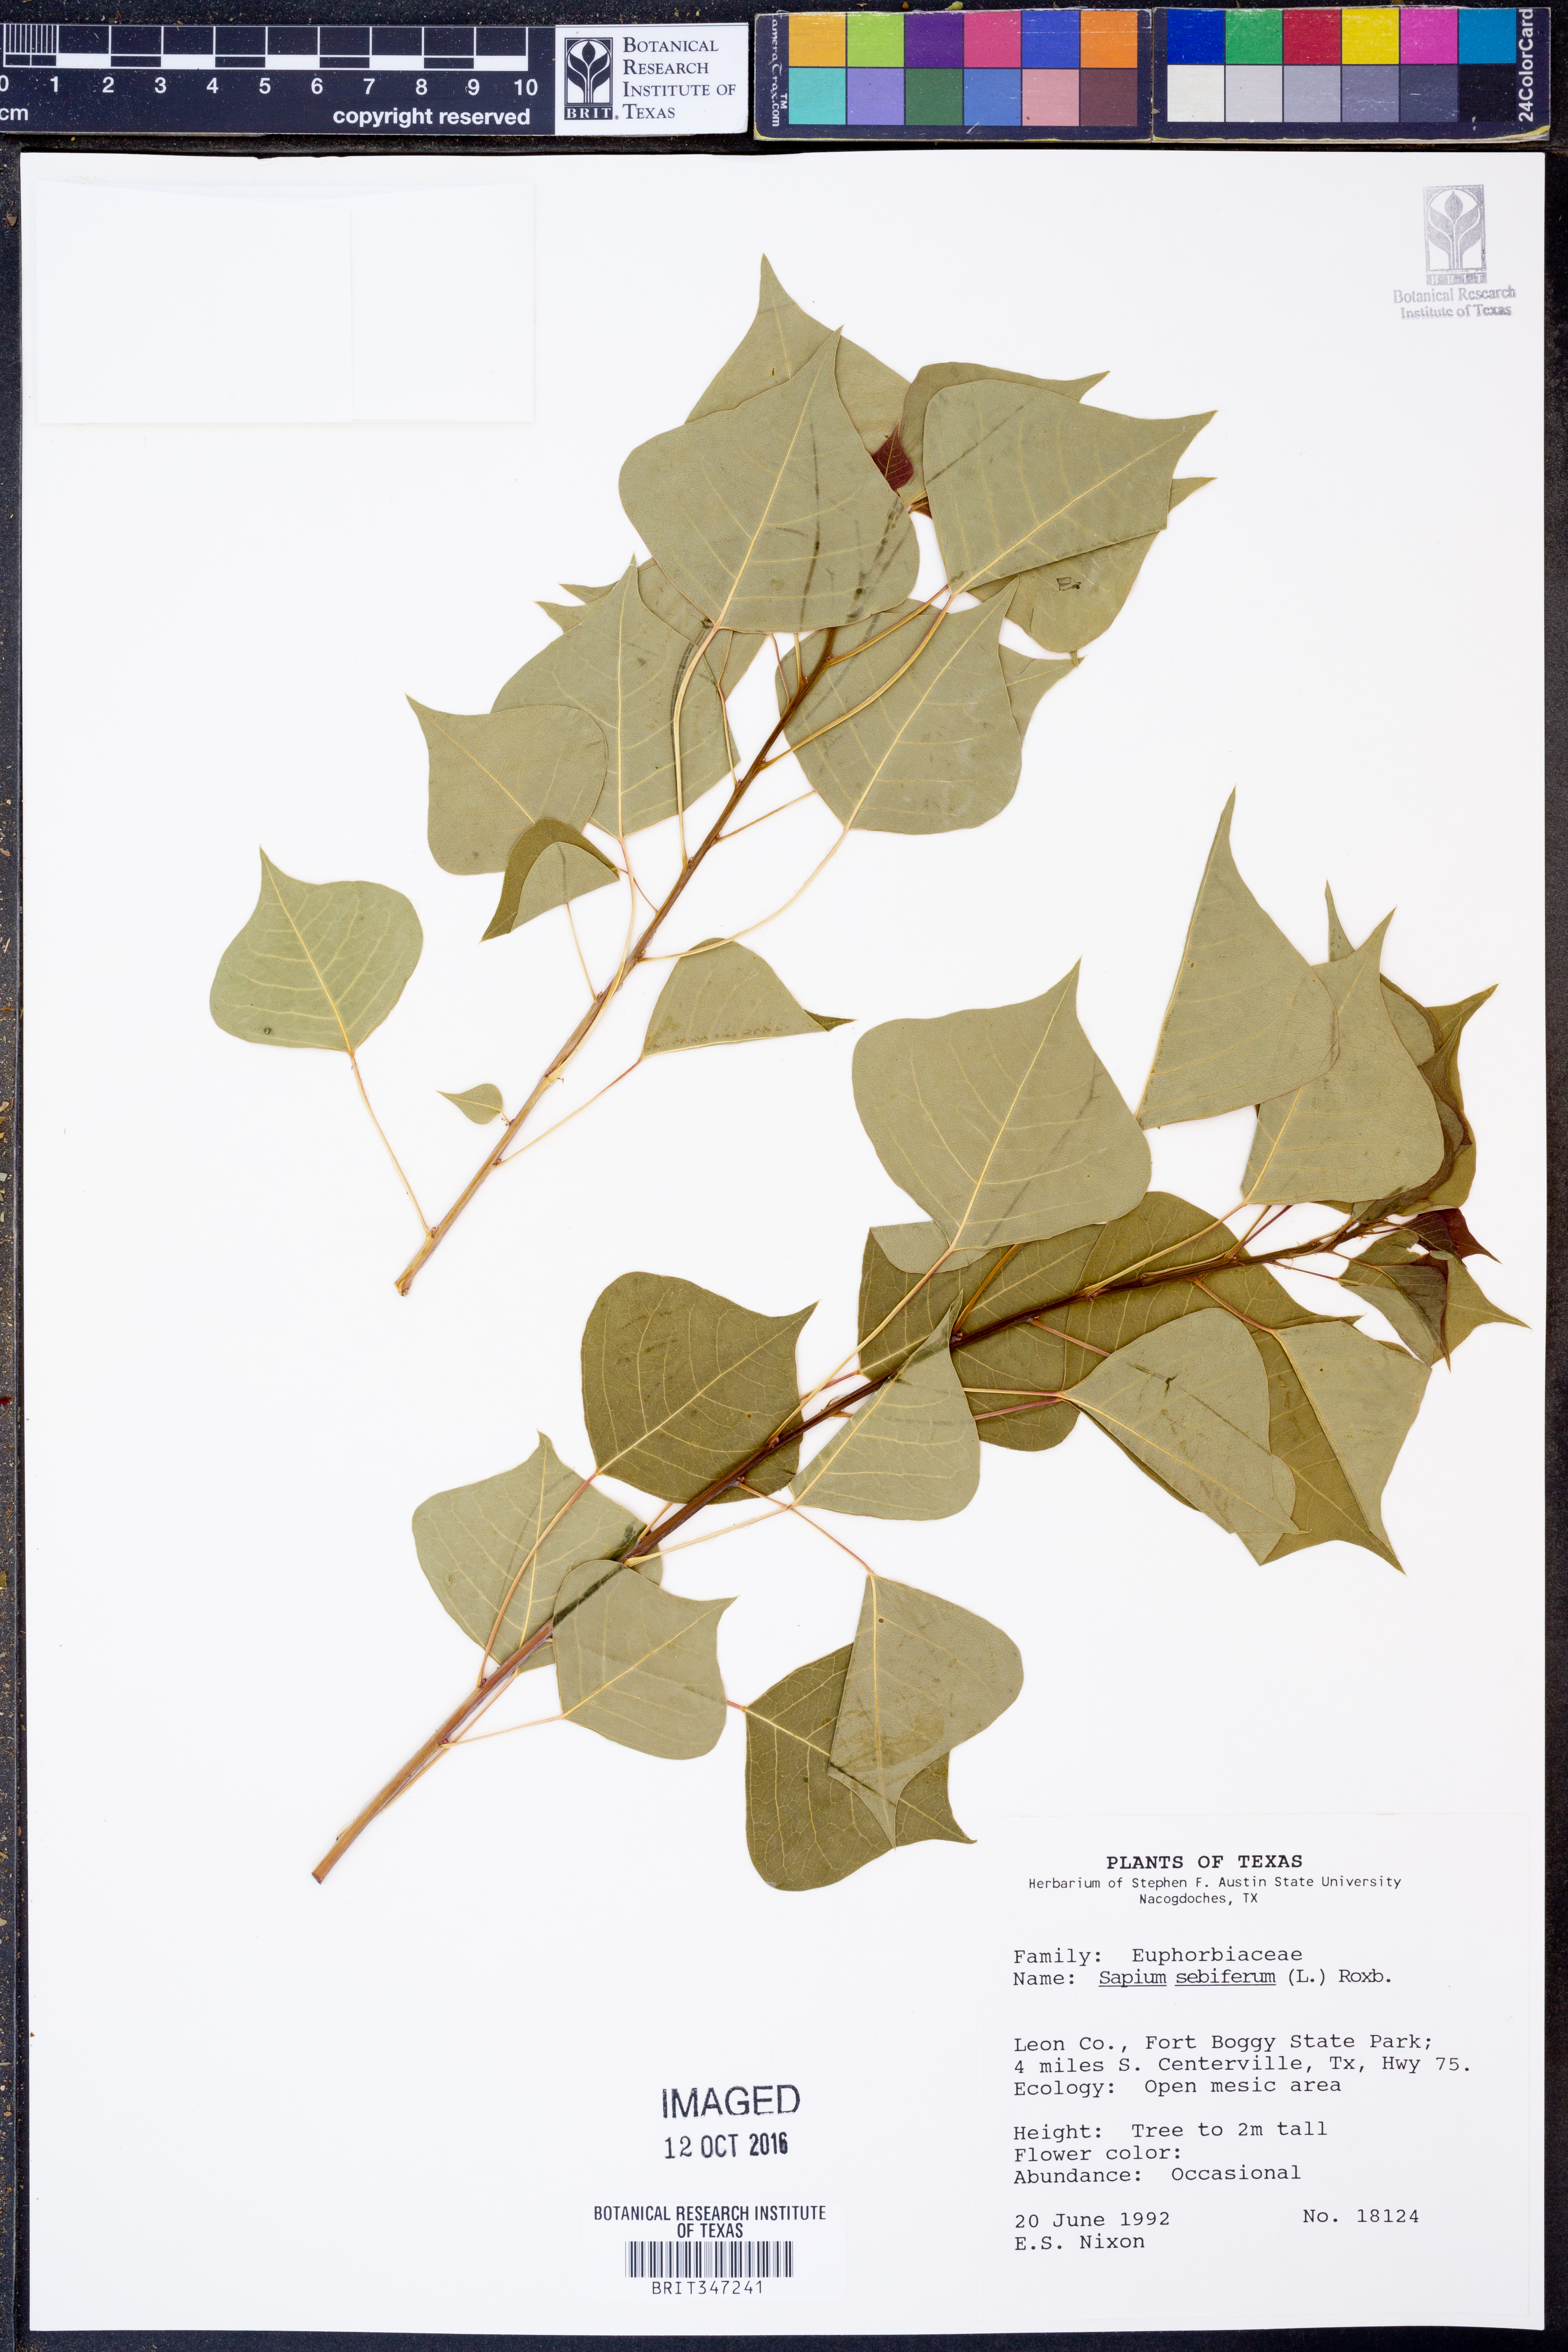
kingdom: Plantae
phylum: Tracheophyta
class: Magnoliopsida
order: Malpighiales
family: Euphorbiaceae
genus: Triadica
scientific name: Triadica sebifera
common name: Chinese tallow
